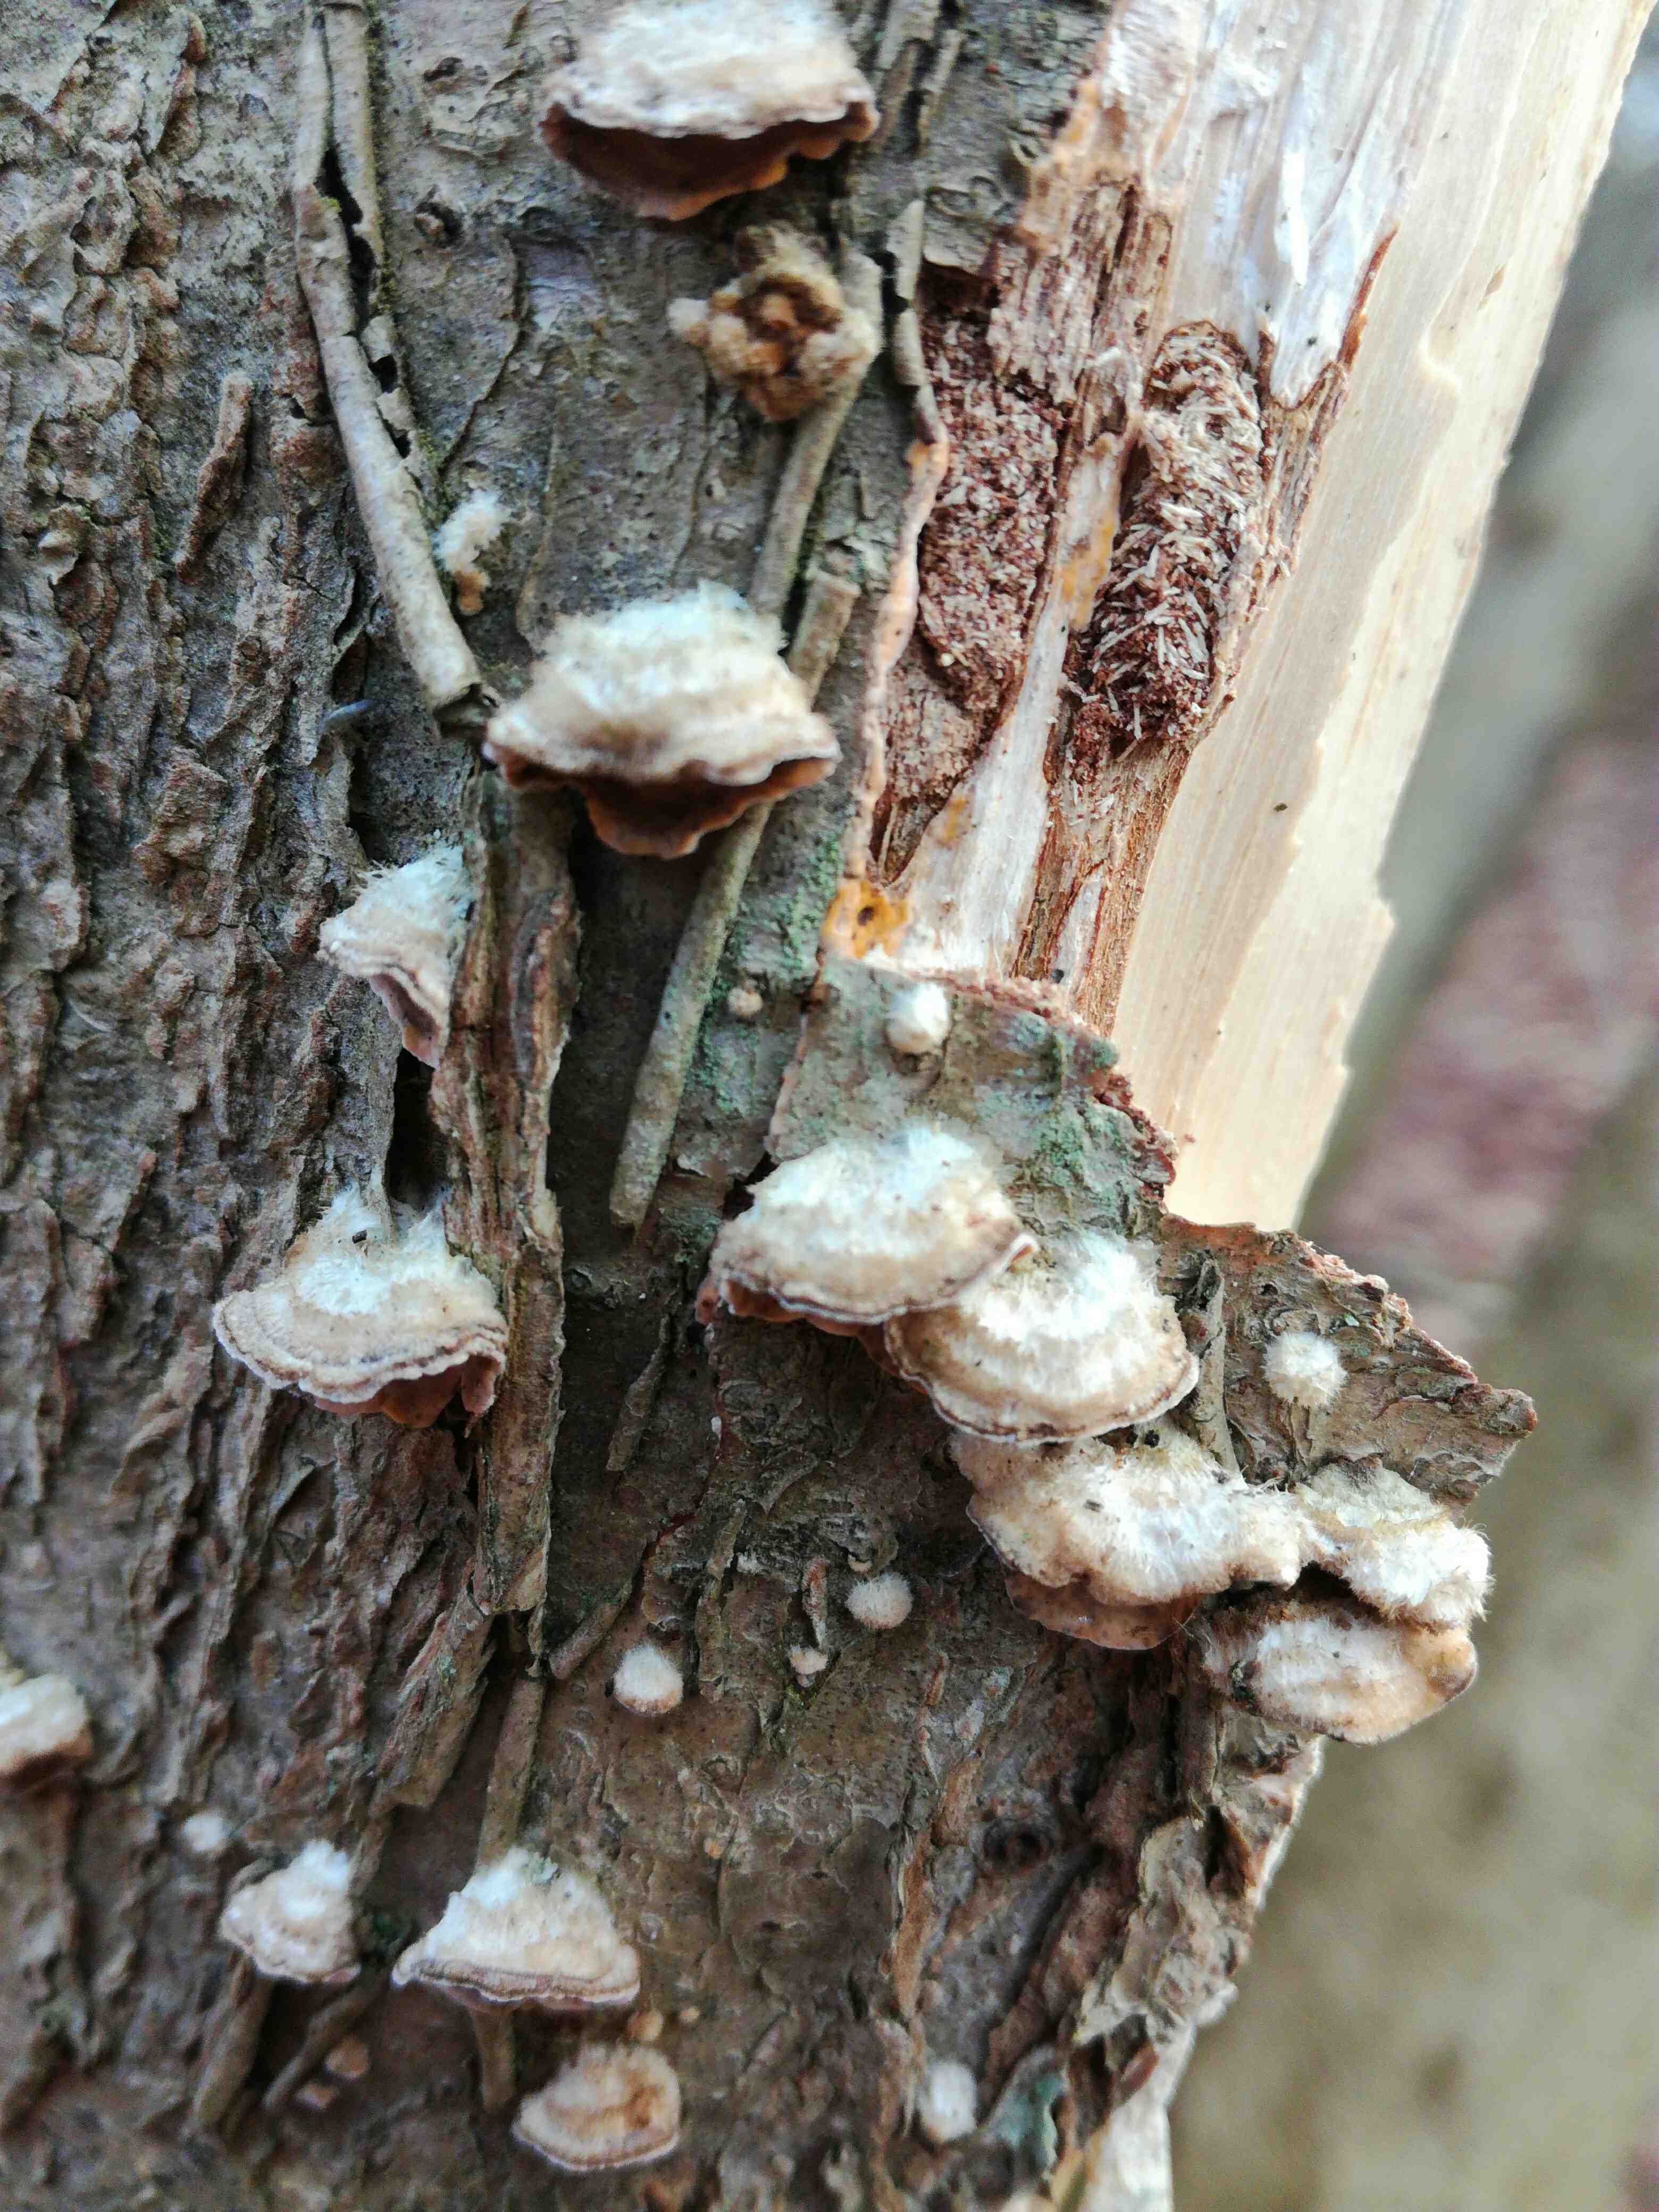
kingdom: Fungi
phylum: Basidiomycota
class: Agaricomycetes
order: Agaricales
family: Cyphellaceae
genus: Chondrostereum
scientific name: Chondrostereum purpureum
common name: purpurlædersvamp
